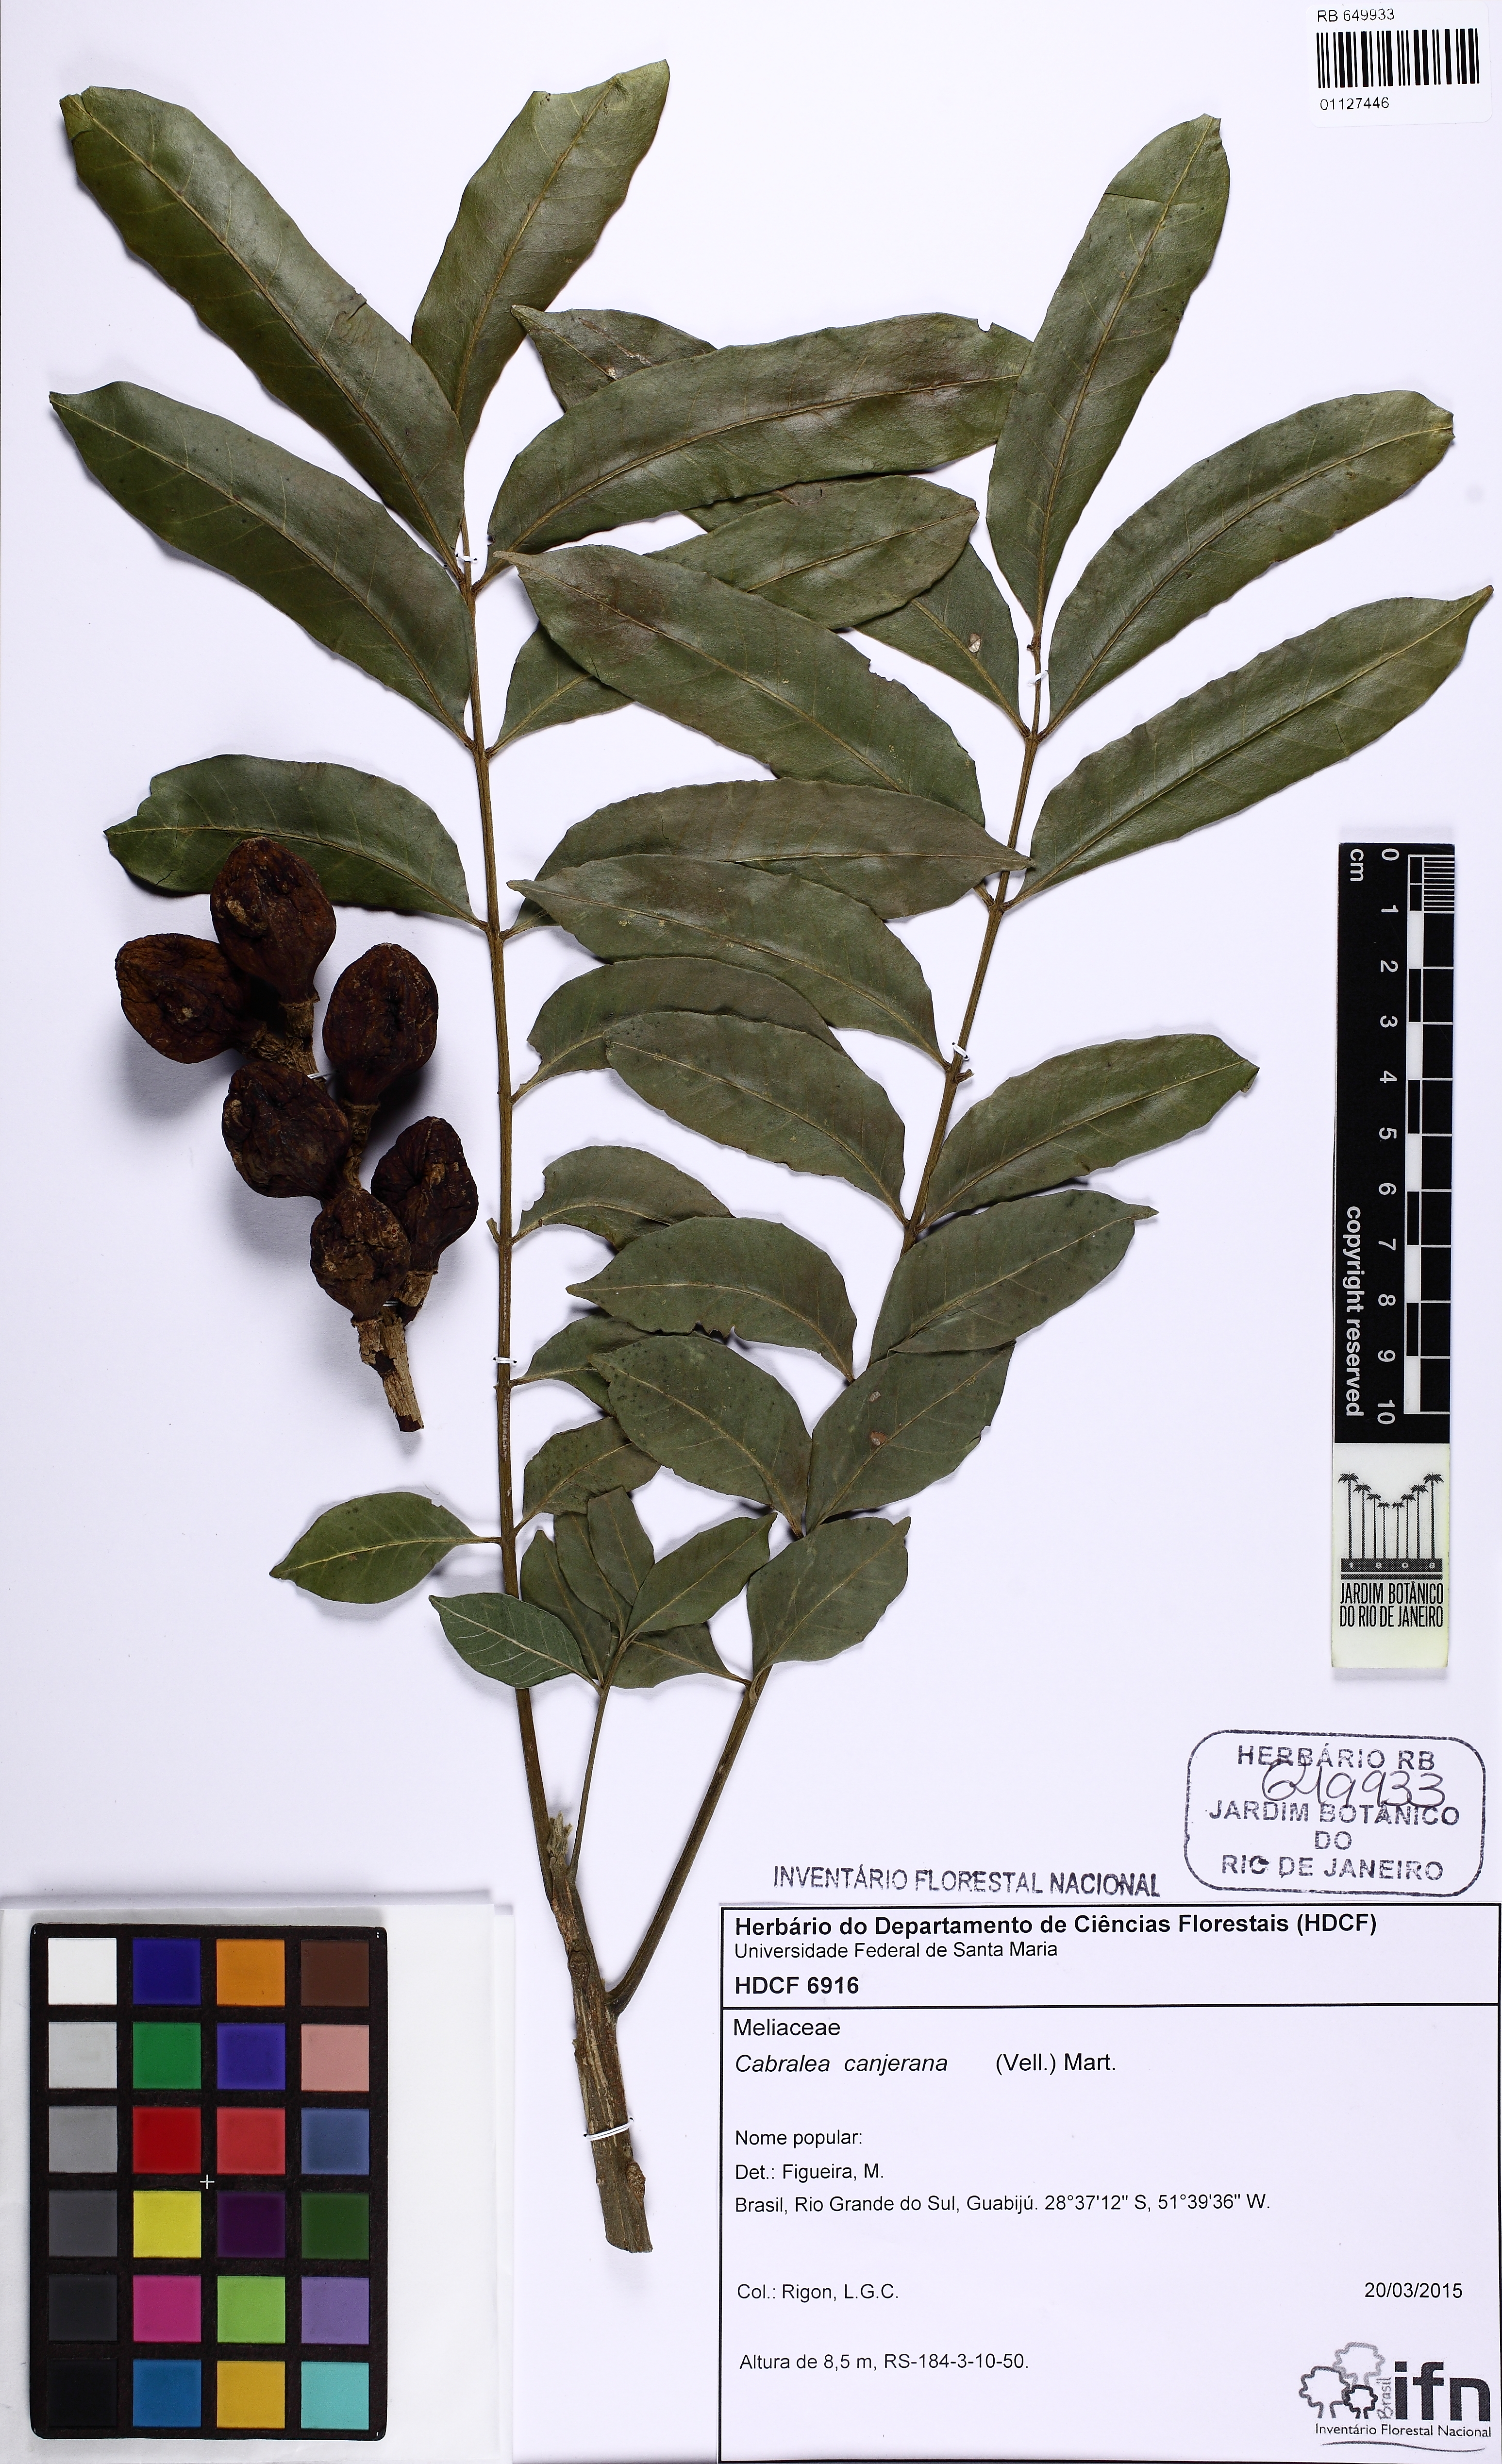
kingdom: Plantae
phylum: Tracheophyta
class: Magnoliopsida
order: Sapindales
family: Meliaceae
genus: Cabralea
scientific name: Cabralea canjerana
